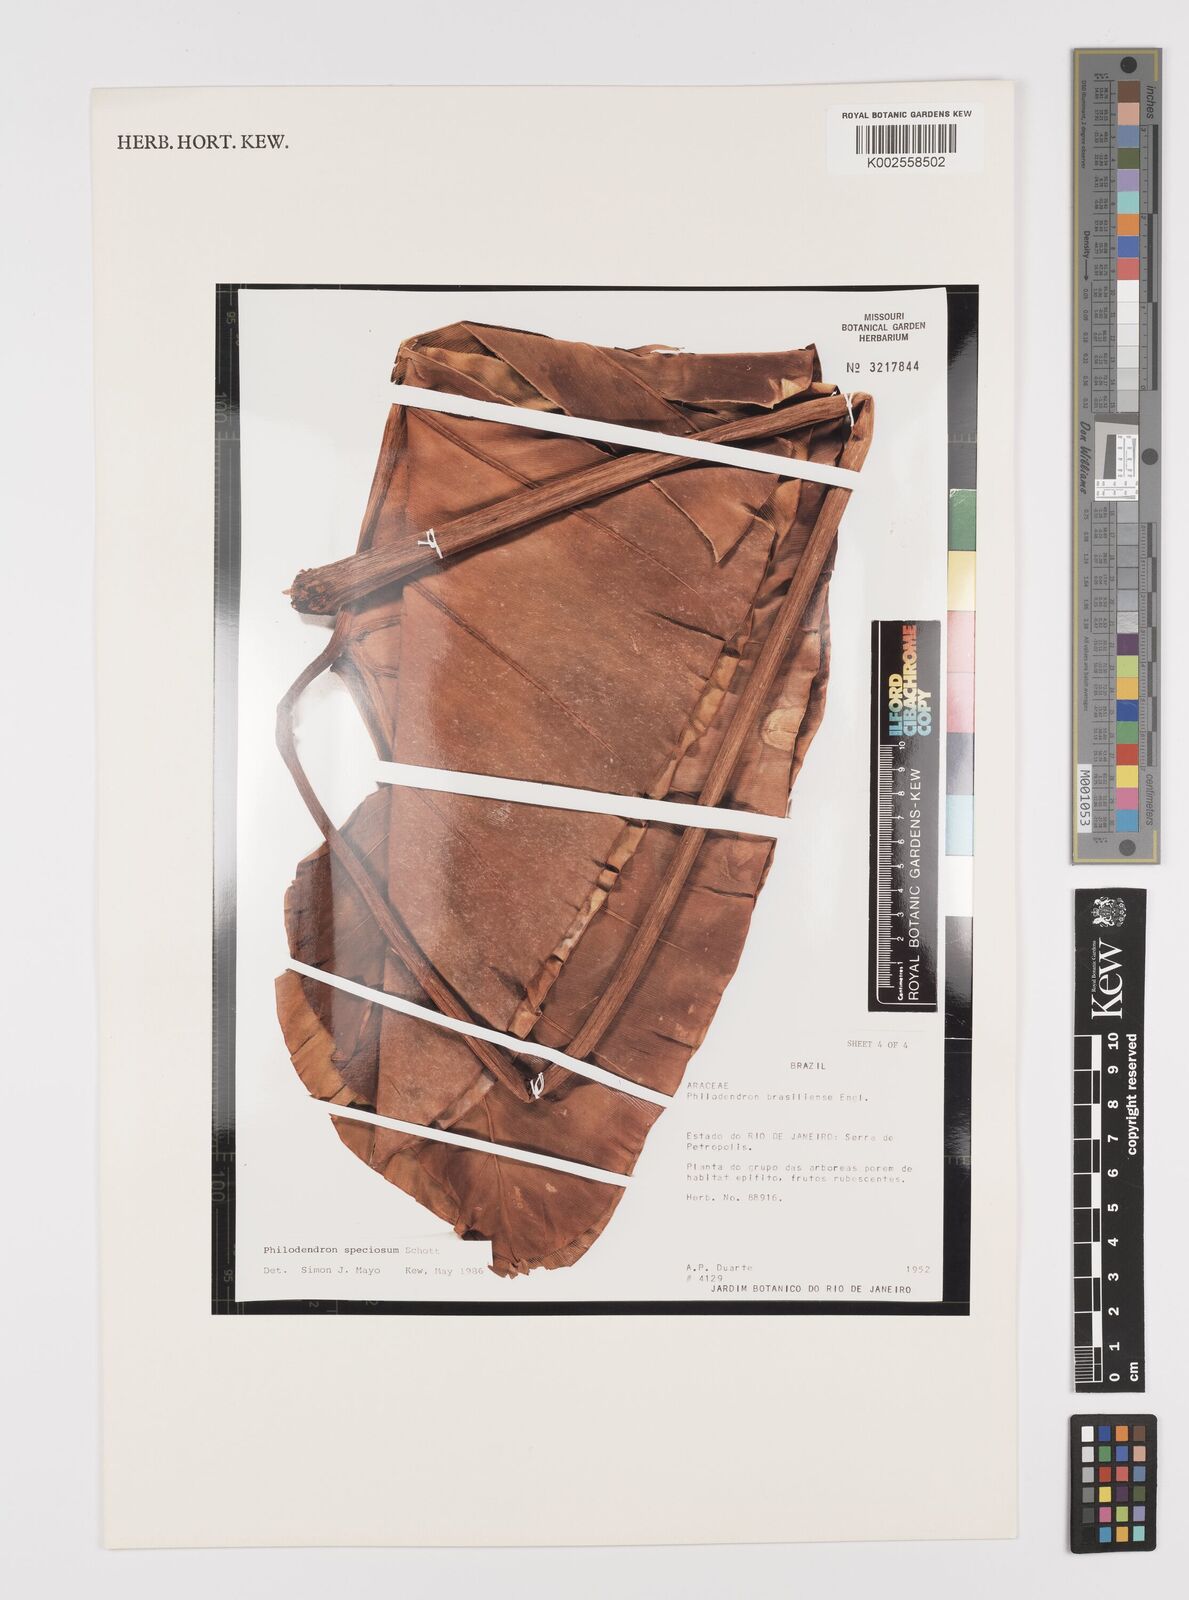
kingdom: Plantae
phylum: Tracheophyta
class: Liliopsida
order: Alismatales
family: Araceae
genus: Thaumatophyllum
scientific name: Thaumatophyllum speciosum
